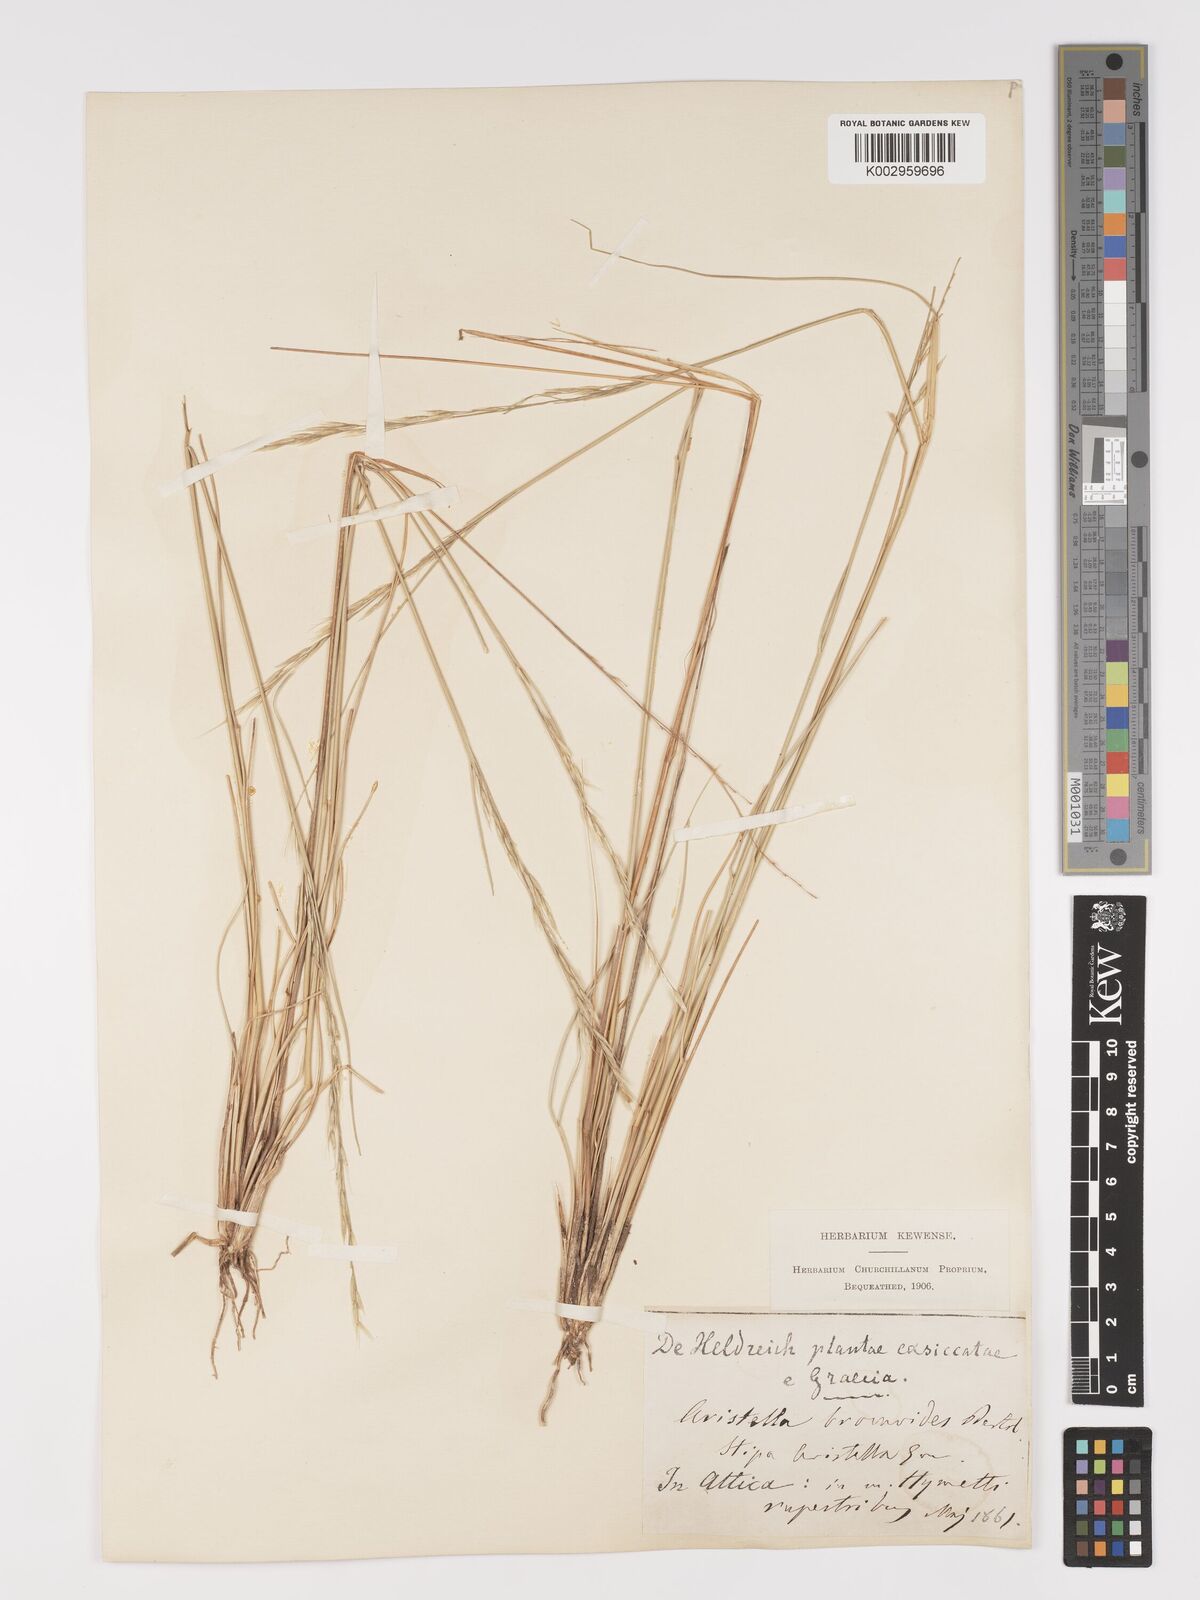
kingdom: Plantae
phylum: Tracheophyta
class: Liliopsida
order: Poales
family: Poaceae
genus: Achnatherum
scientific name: Achnatherum bromoides
